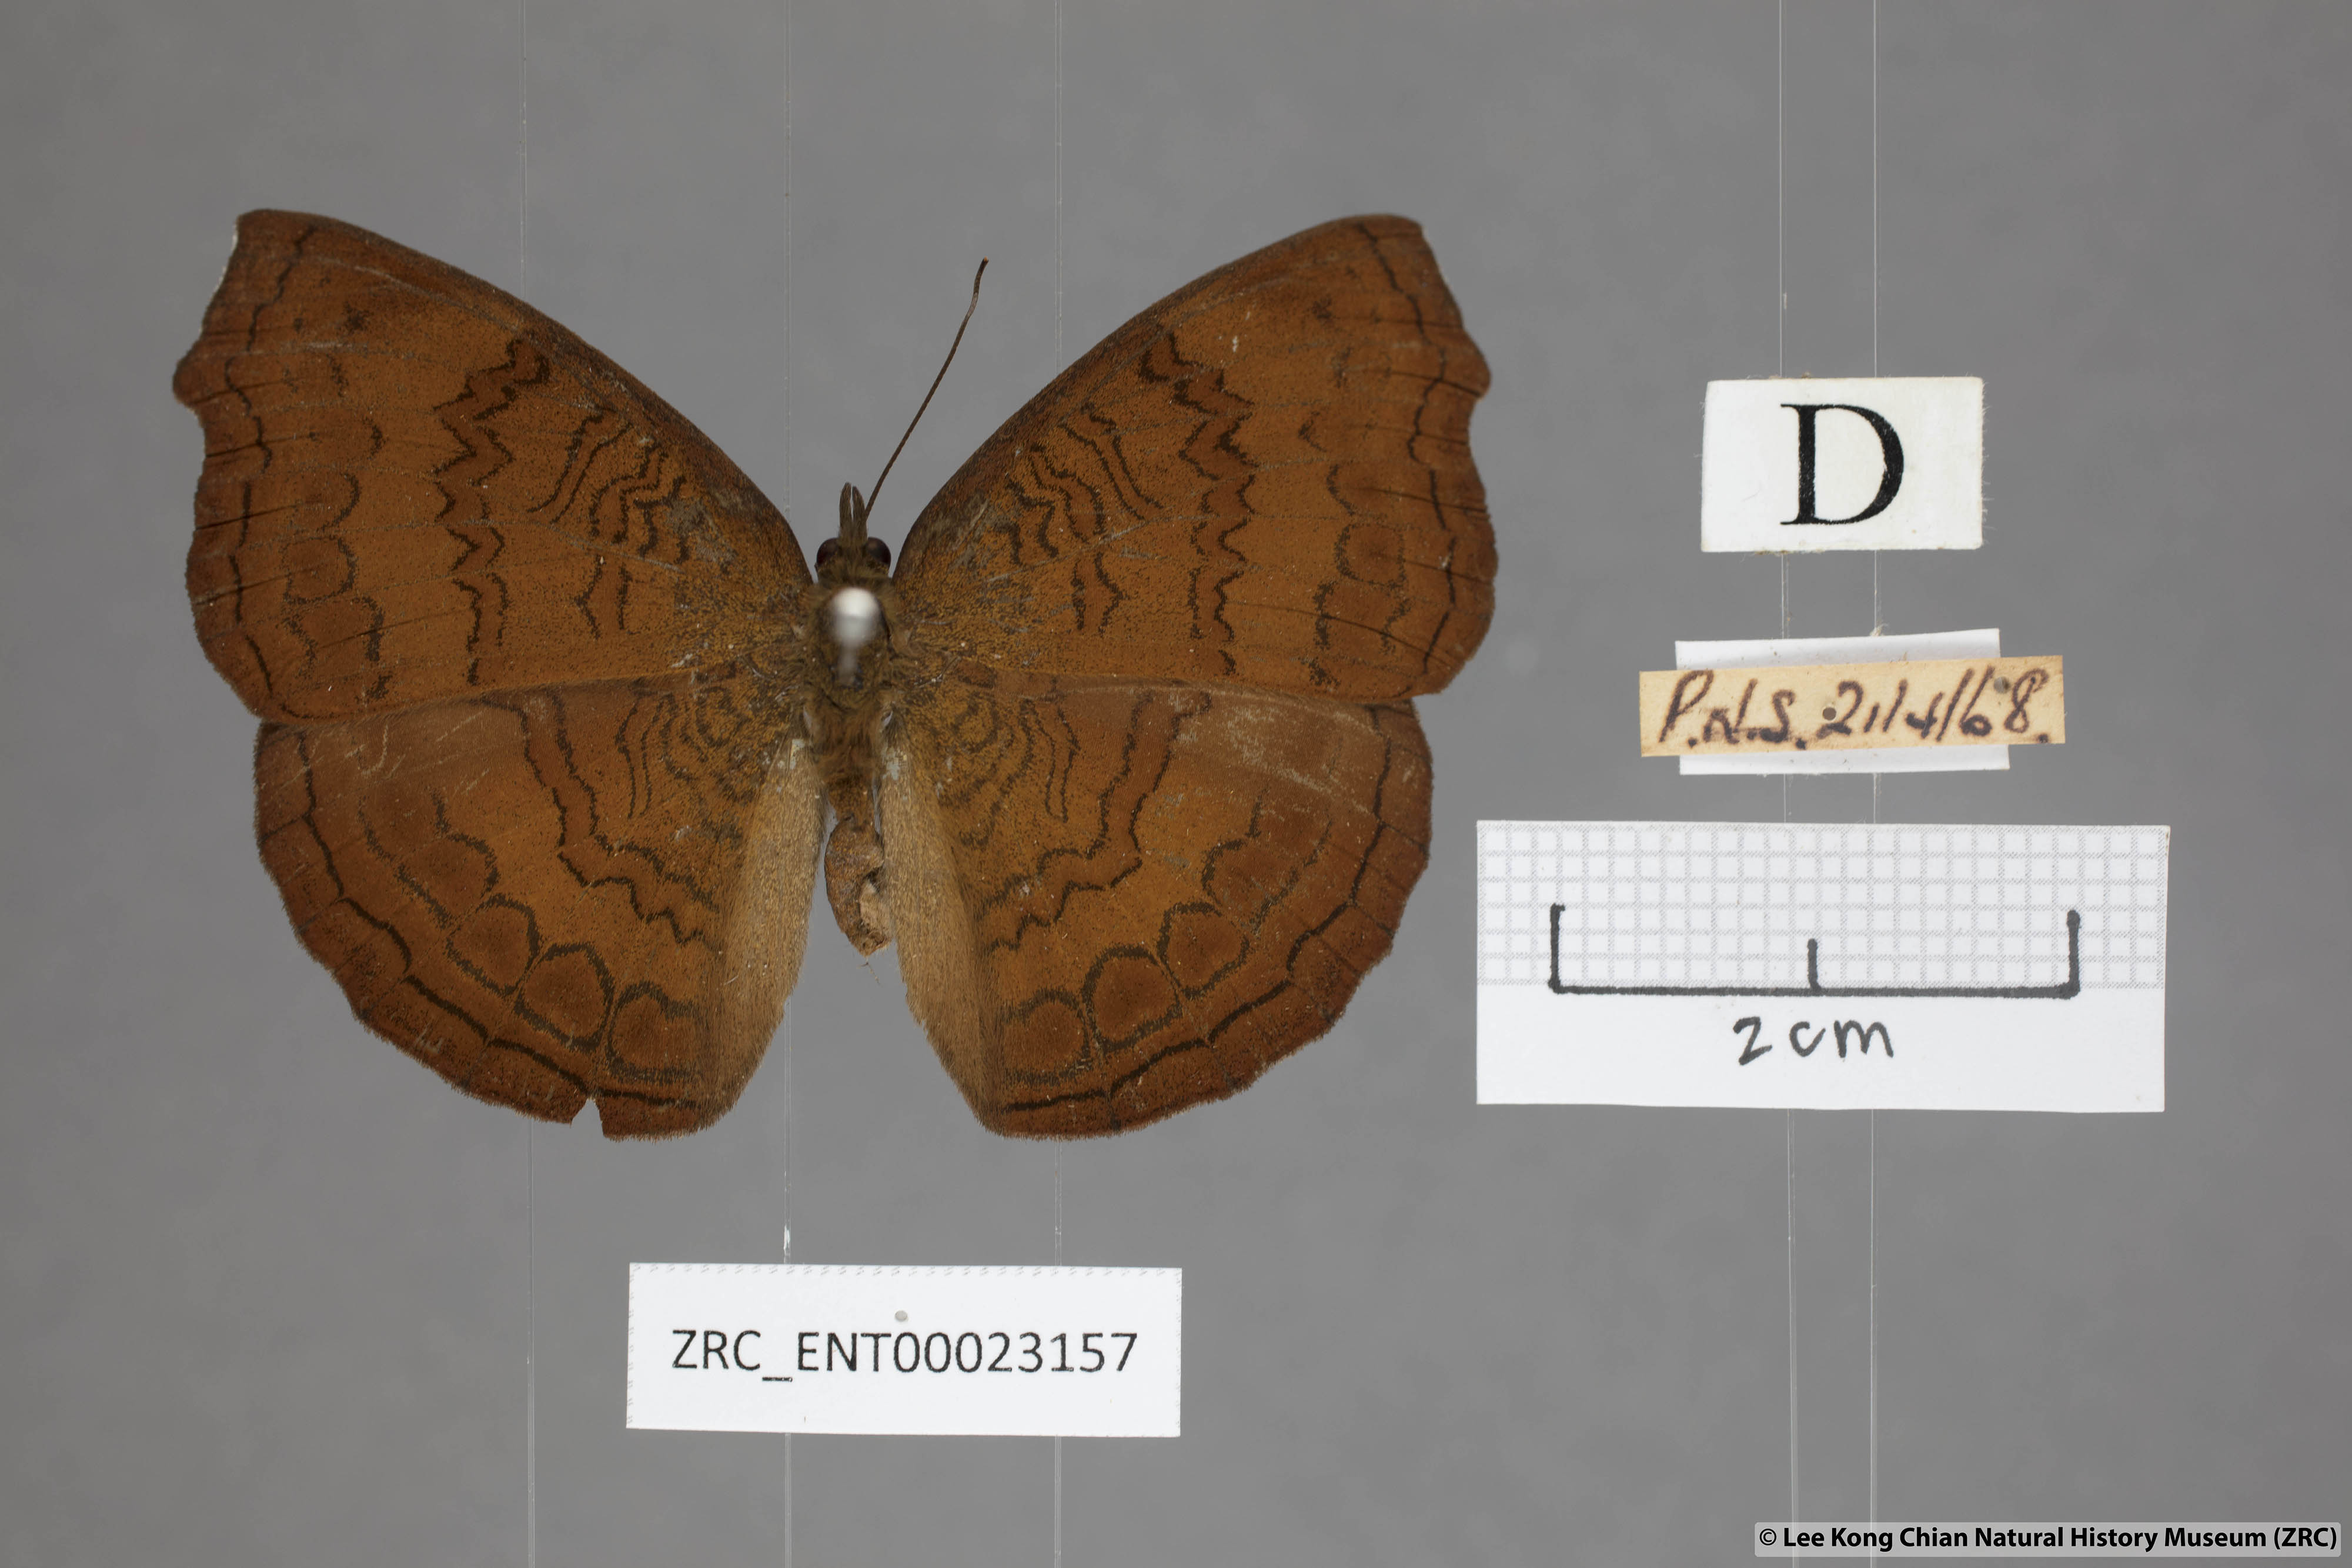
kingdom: Animalia
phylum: Arthropoda
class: Insecta
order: Lepidoptera
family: Nymphalidae
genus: Ariadne
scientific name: Ariadne isaeus
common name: Malayan castor
